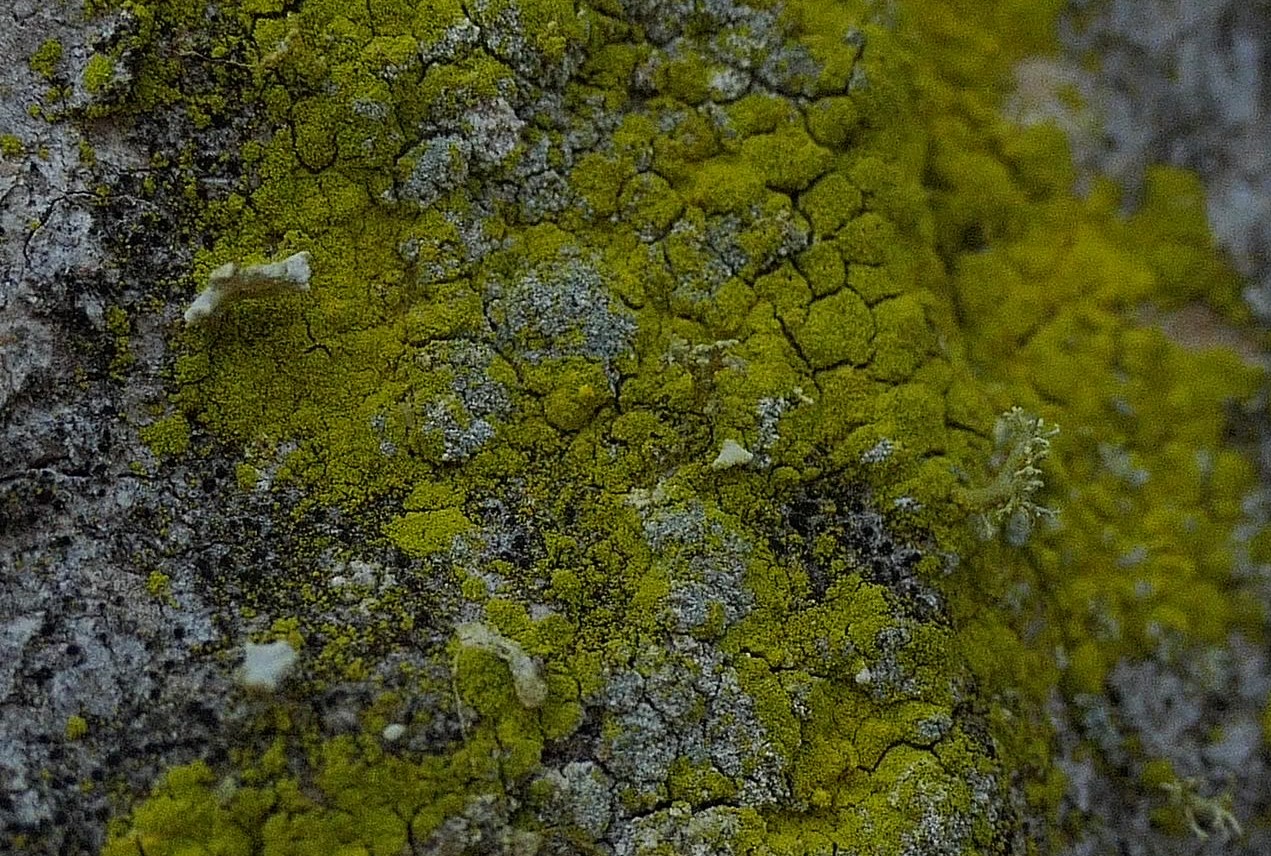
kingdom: Fungi
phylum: Ascomycota
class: Arthoniomycetes
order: Arthoniales
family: Chrysotrichaceae
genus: Chrysothrix
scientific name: Chrysothrix candelaris
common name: gul støvlav
